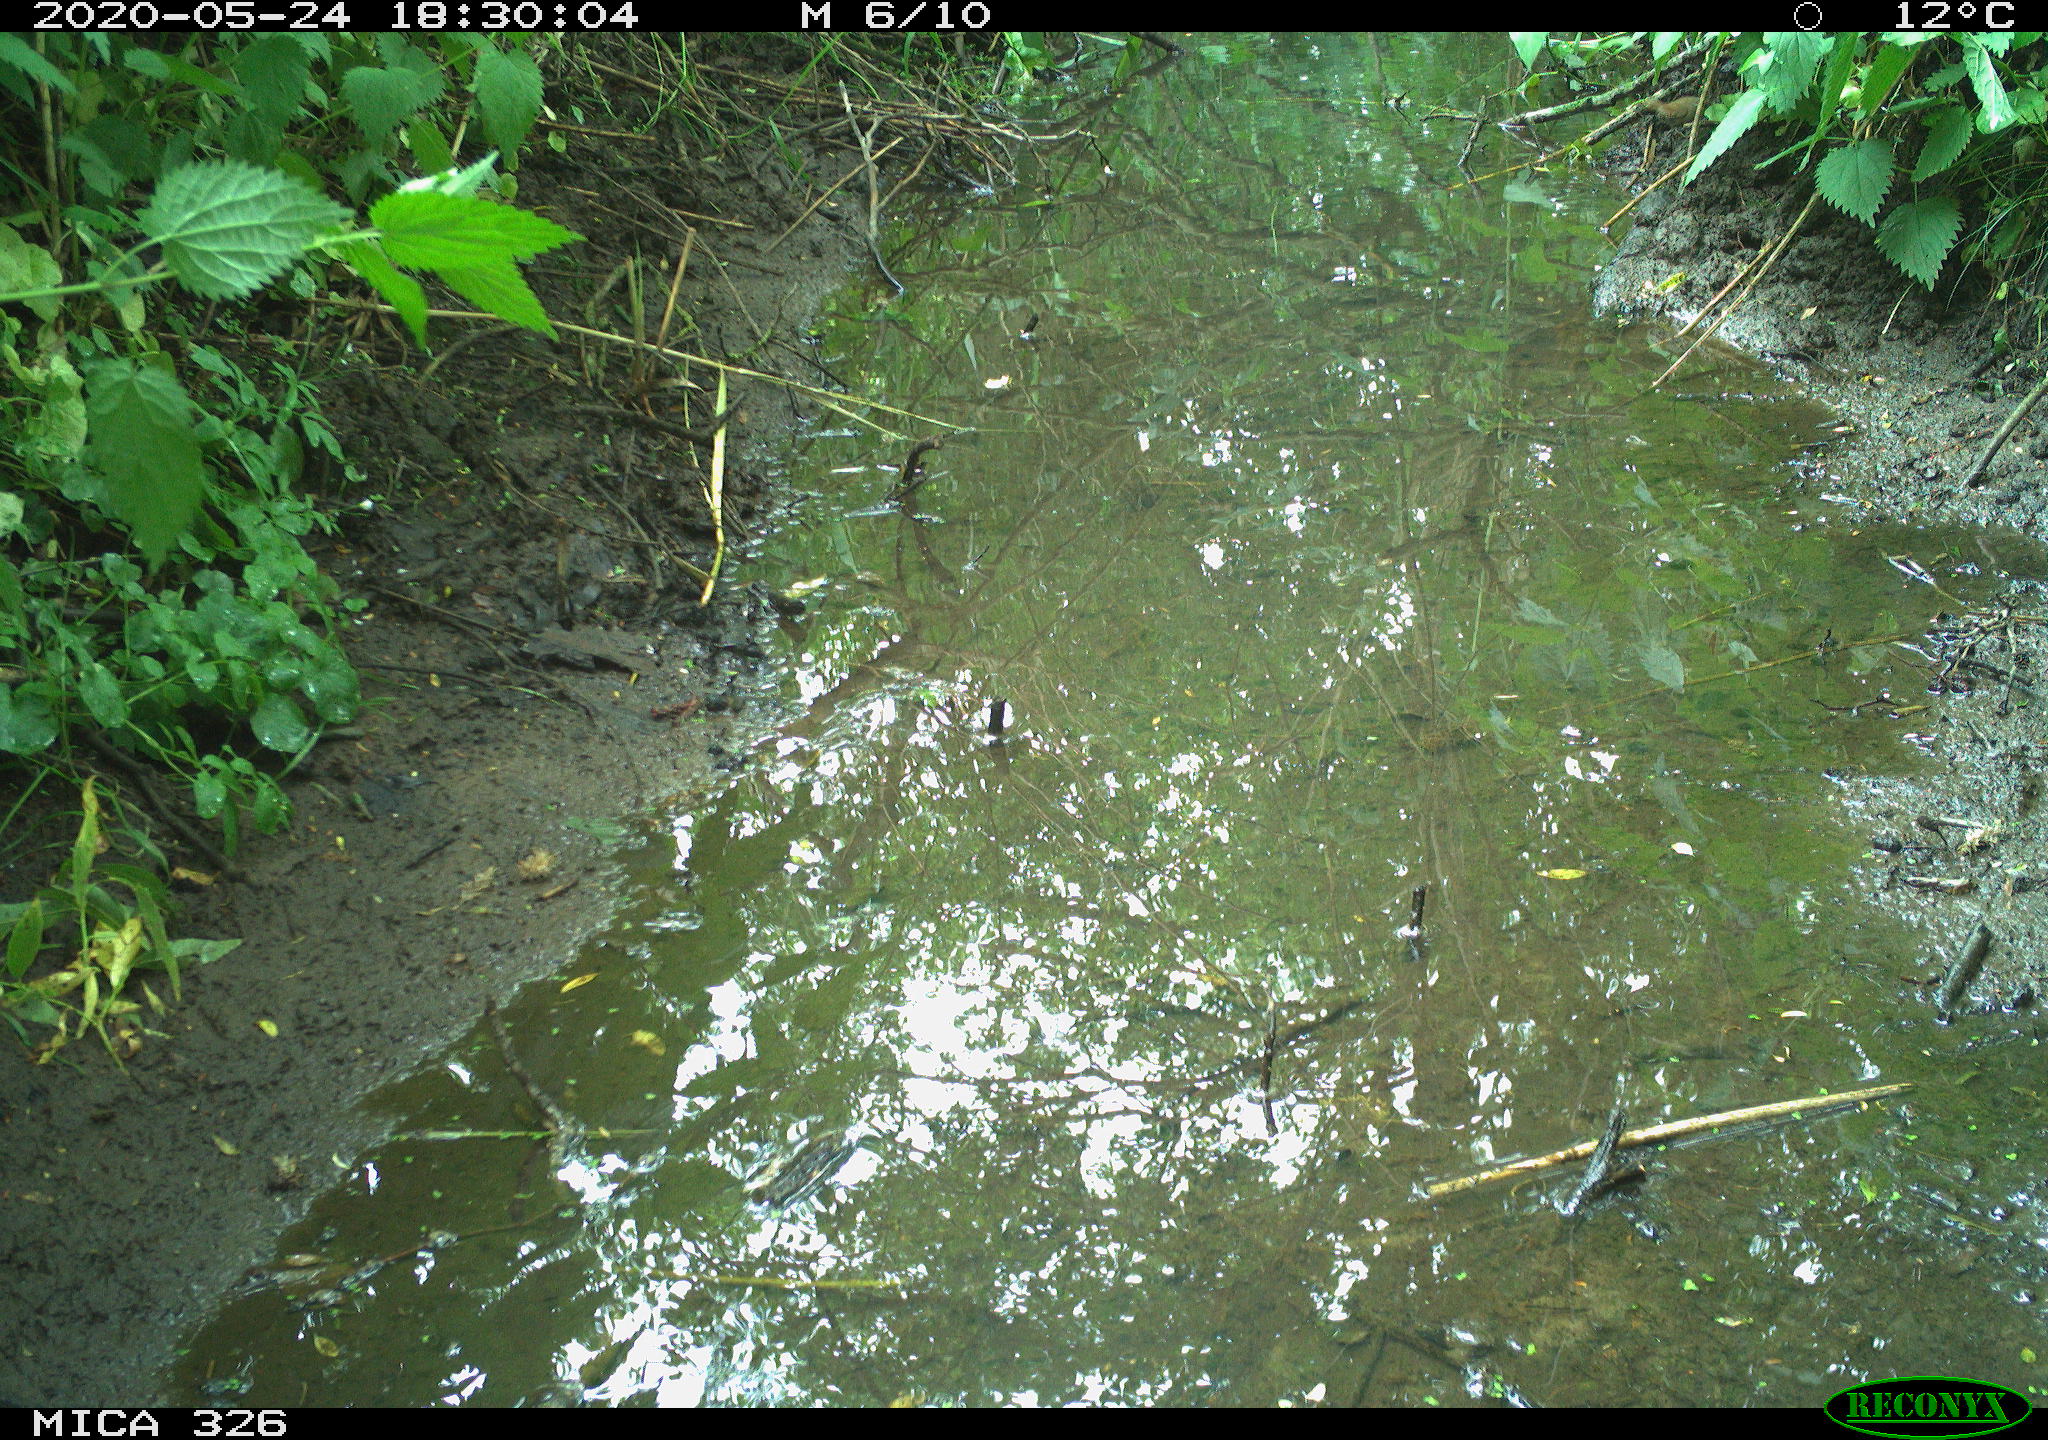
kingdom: Animalia
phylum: Chordata
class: Aves
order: Passeriformes
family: Turdidae
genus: Turdus
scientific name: Turdus philomelos
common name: Song thrush
